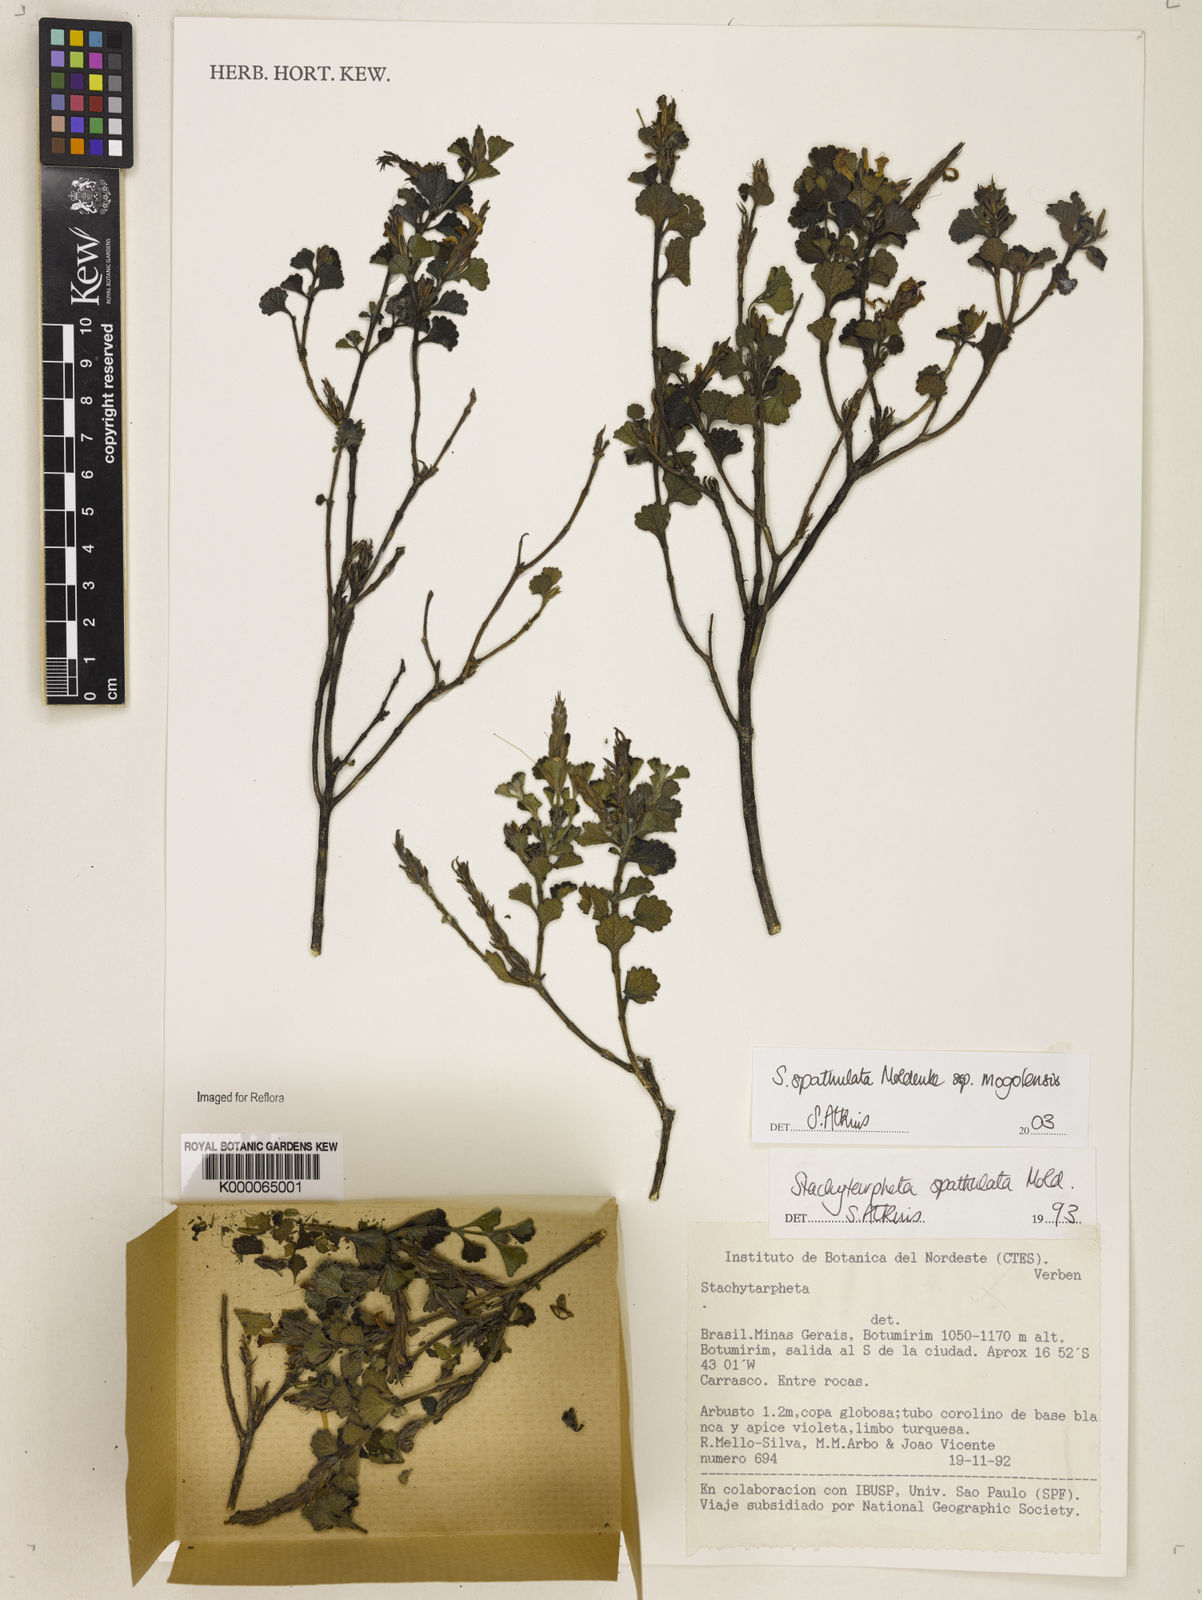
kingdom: Plantae
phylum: Tracheophyta
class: Magnoliopsida
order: Lamiales
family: Verbenaceae
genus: Stachytarpheta
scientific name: Stachytarpheta spathulata
